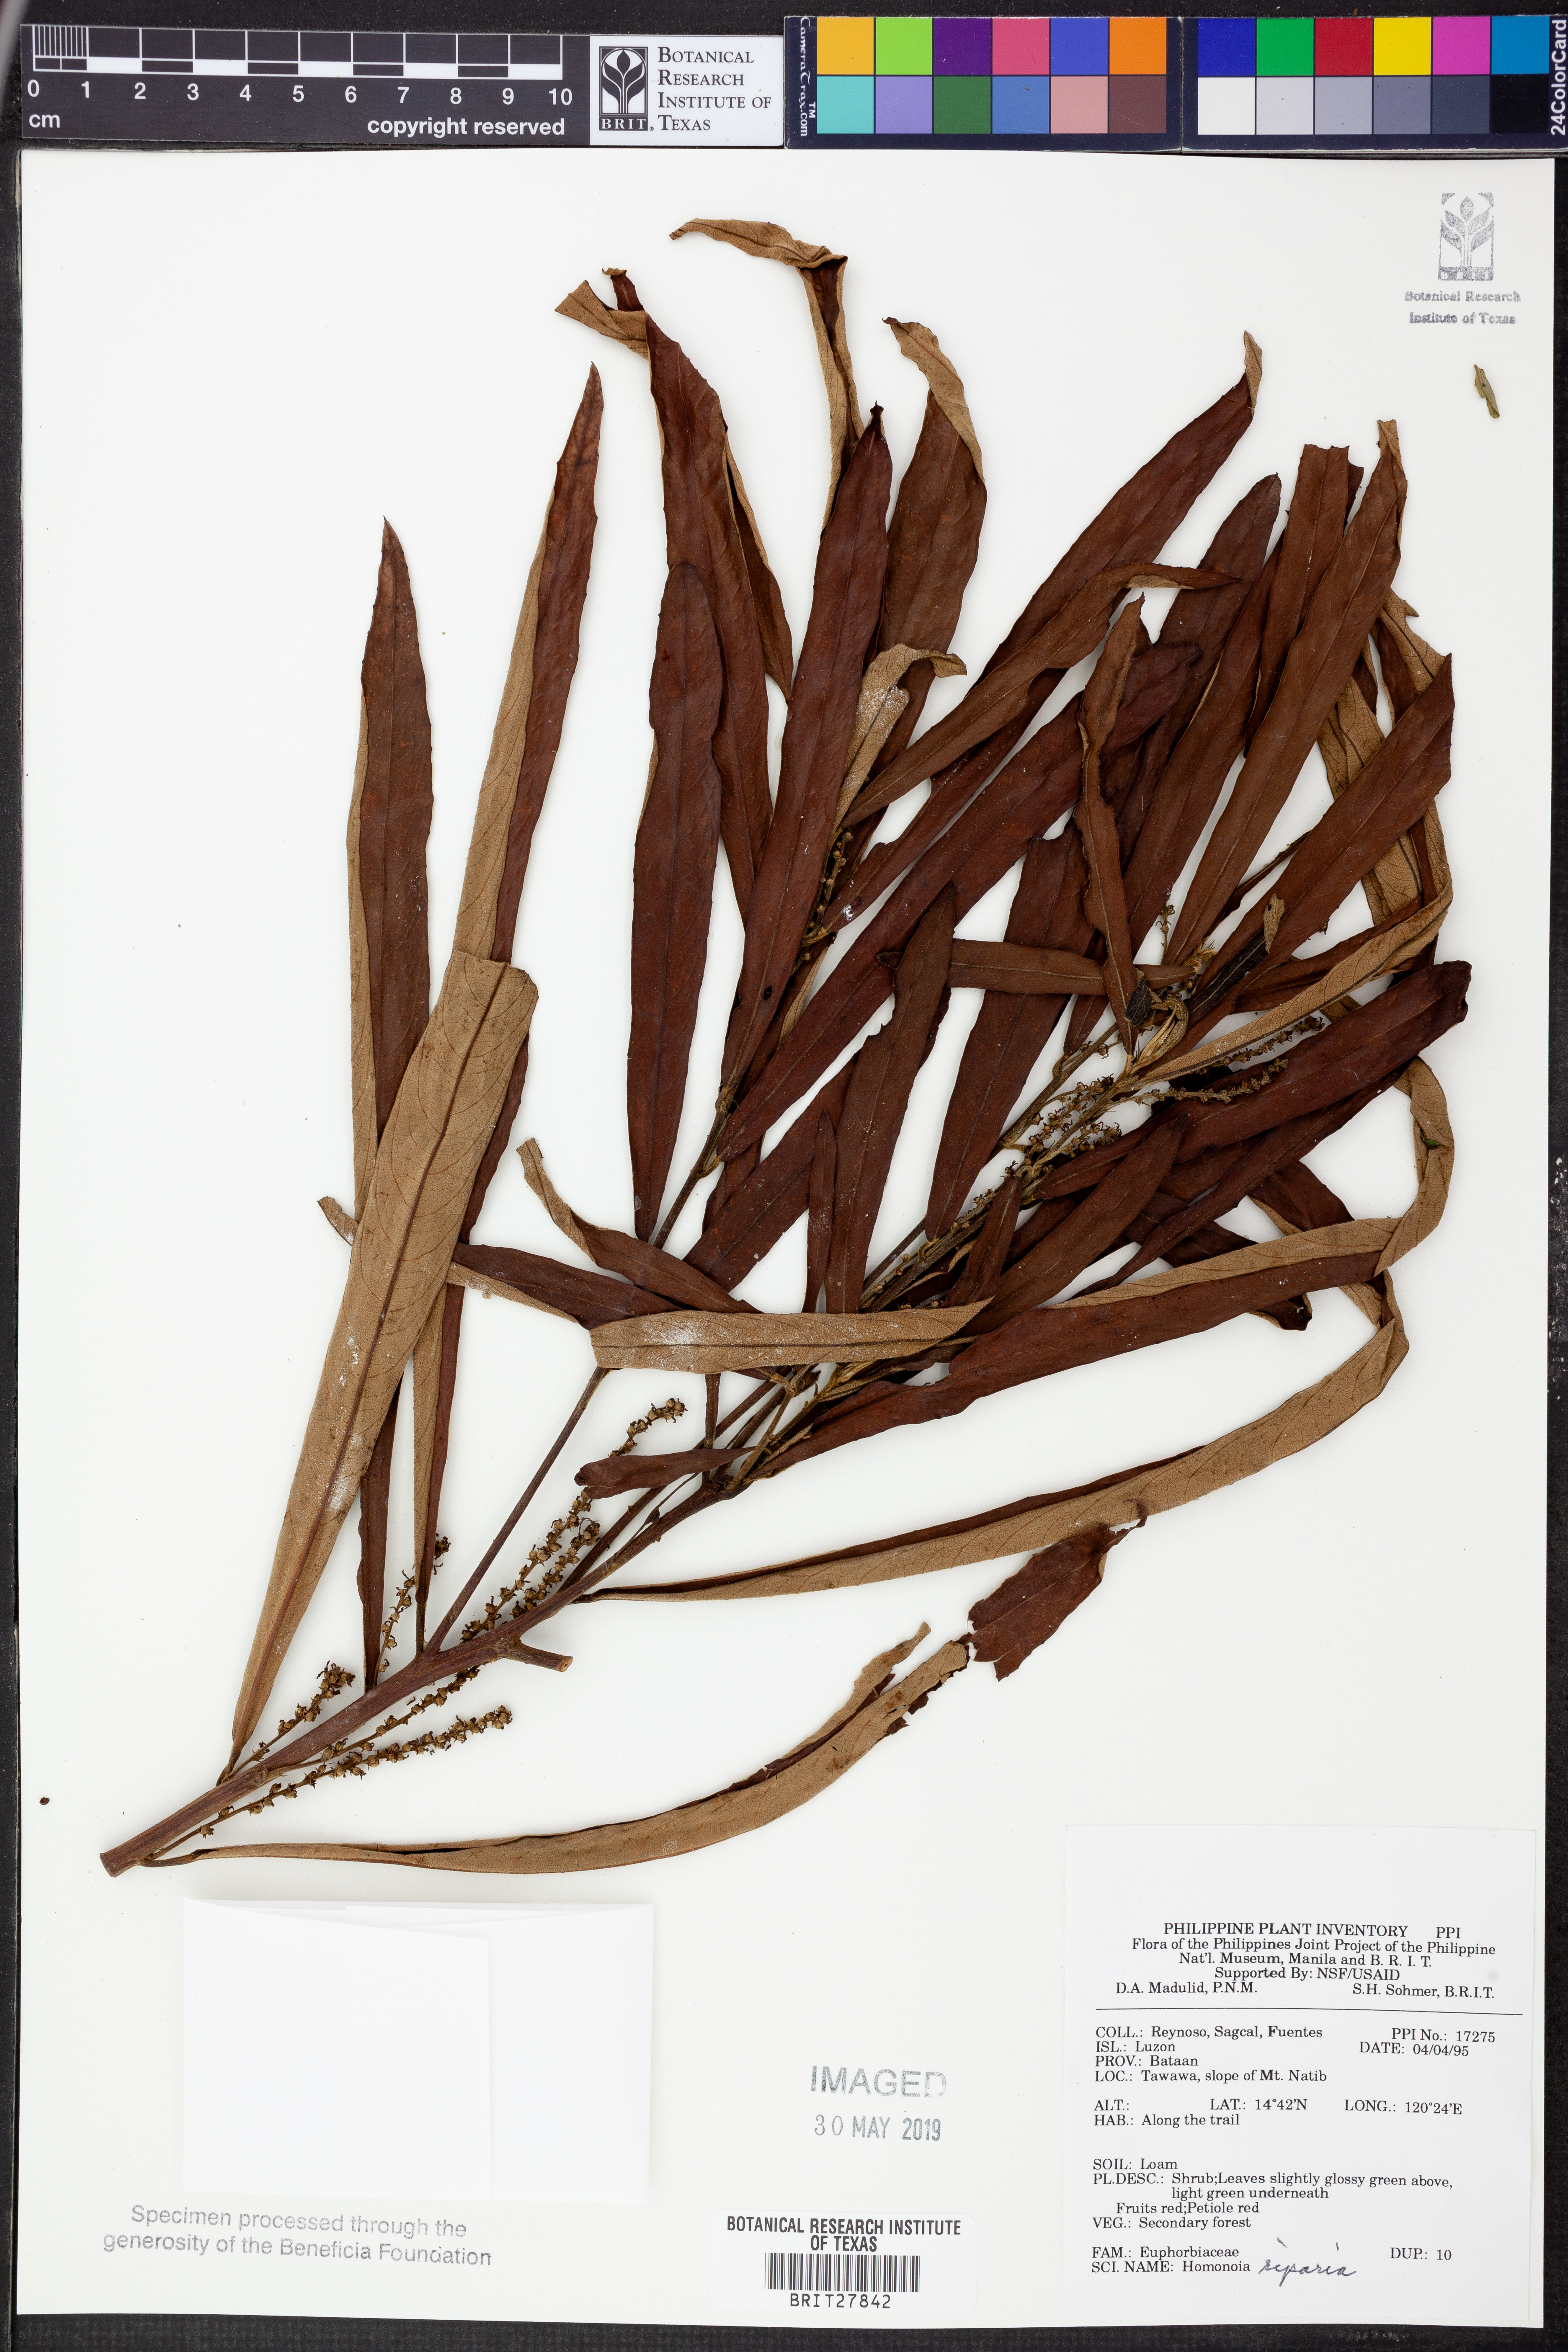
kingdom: Plantae
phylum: Tracheophyta
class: Magnoliopsida
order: Malpighiales
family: Euphorbiaceae
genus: Homonoia
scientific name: Homonoia riparia
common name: Willow-leaved water croton
